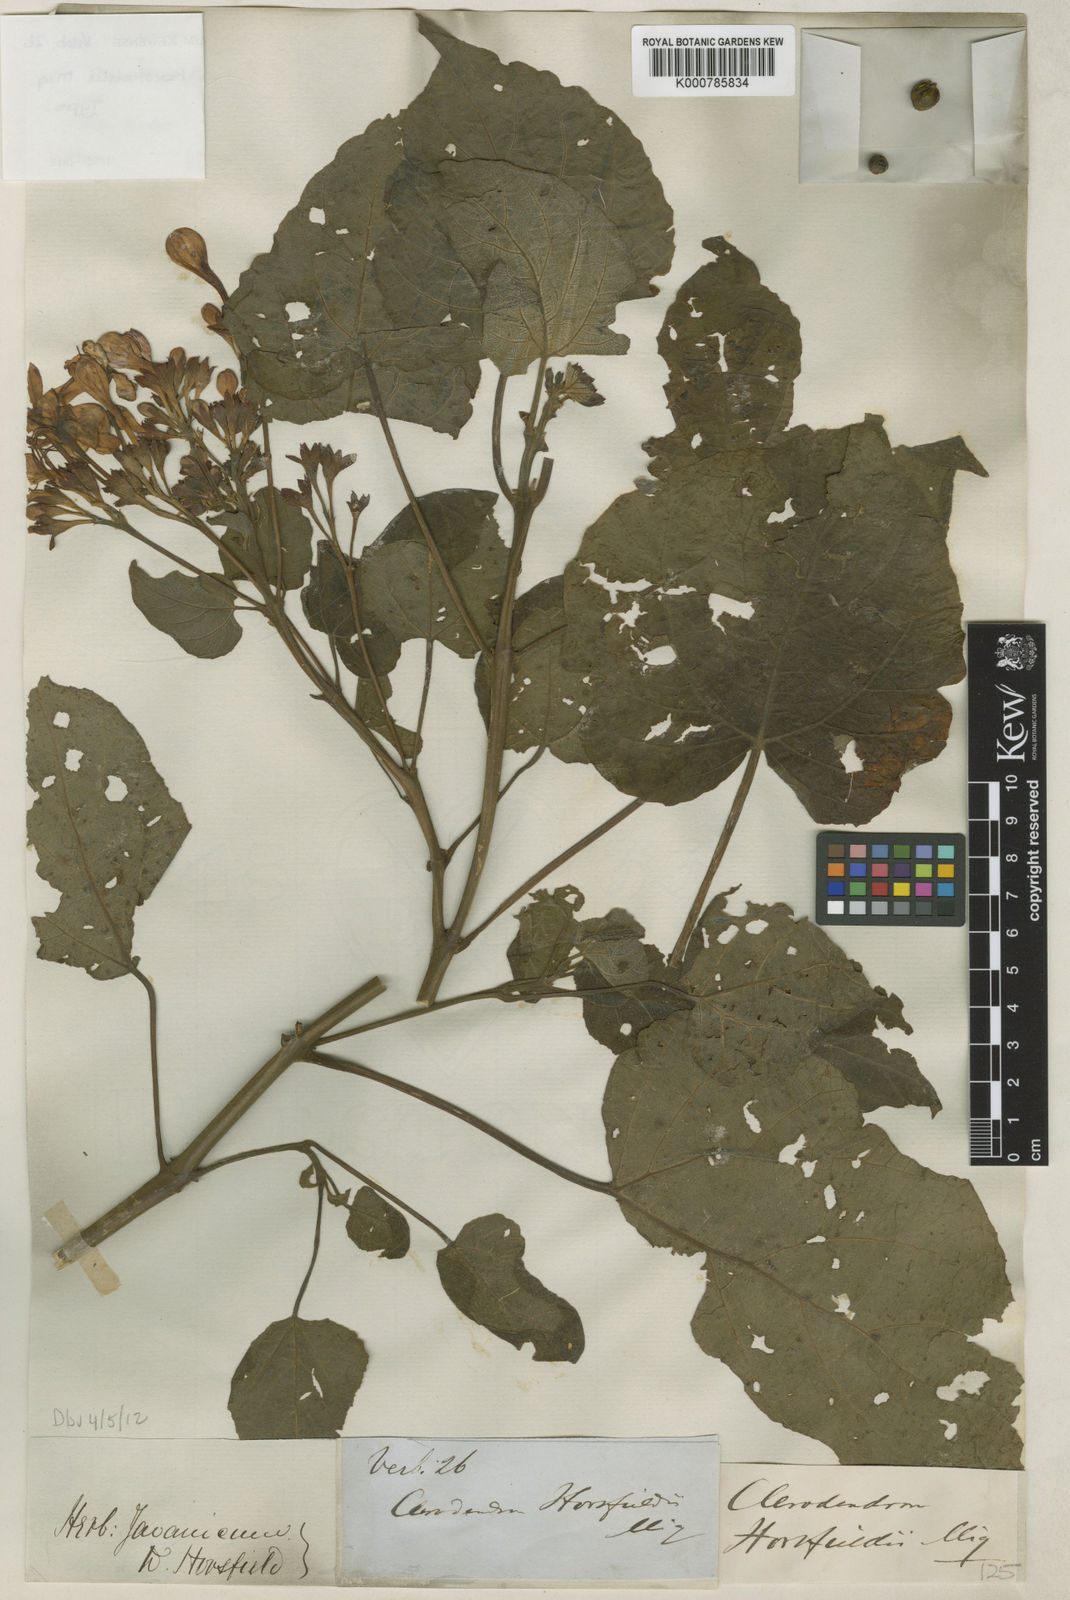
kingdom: Plantae
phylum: Tracheophyta
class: Magnoliopsida
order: Lamiales
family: Lamiaceae
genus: Clerodendrum
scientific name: Clerodendrum speciosissimum
